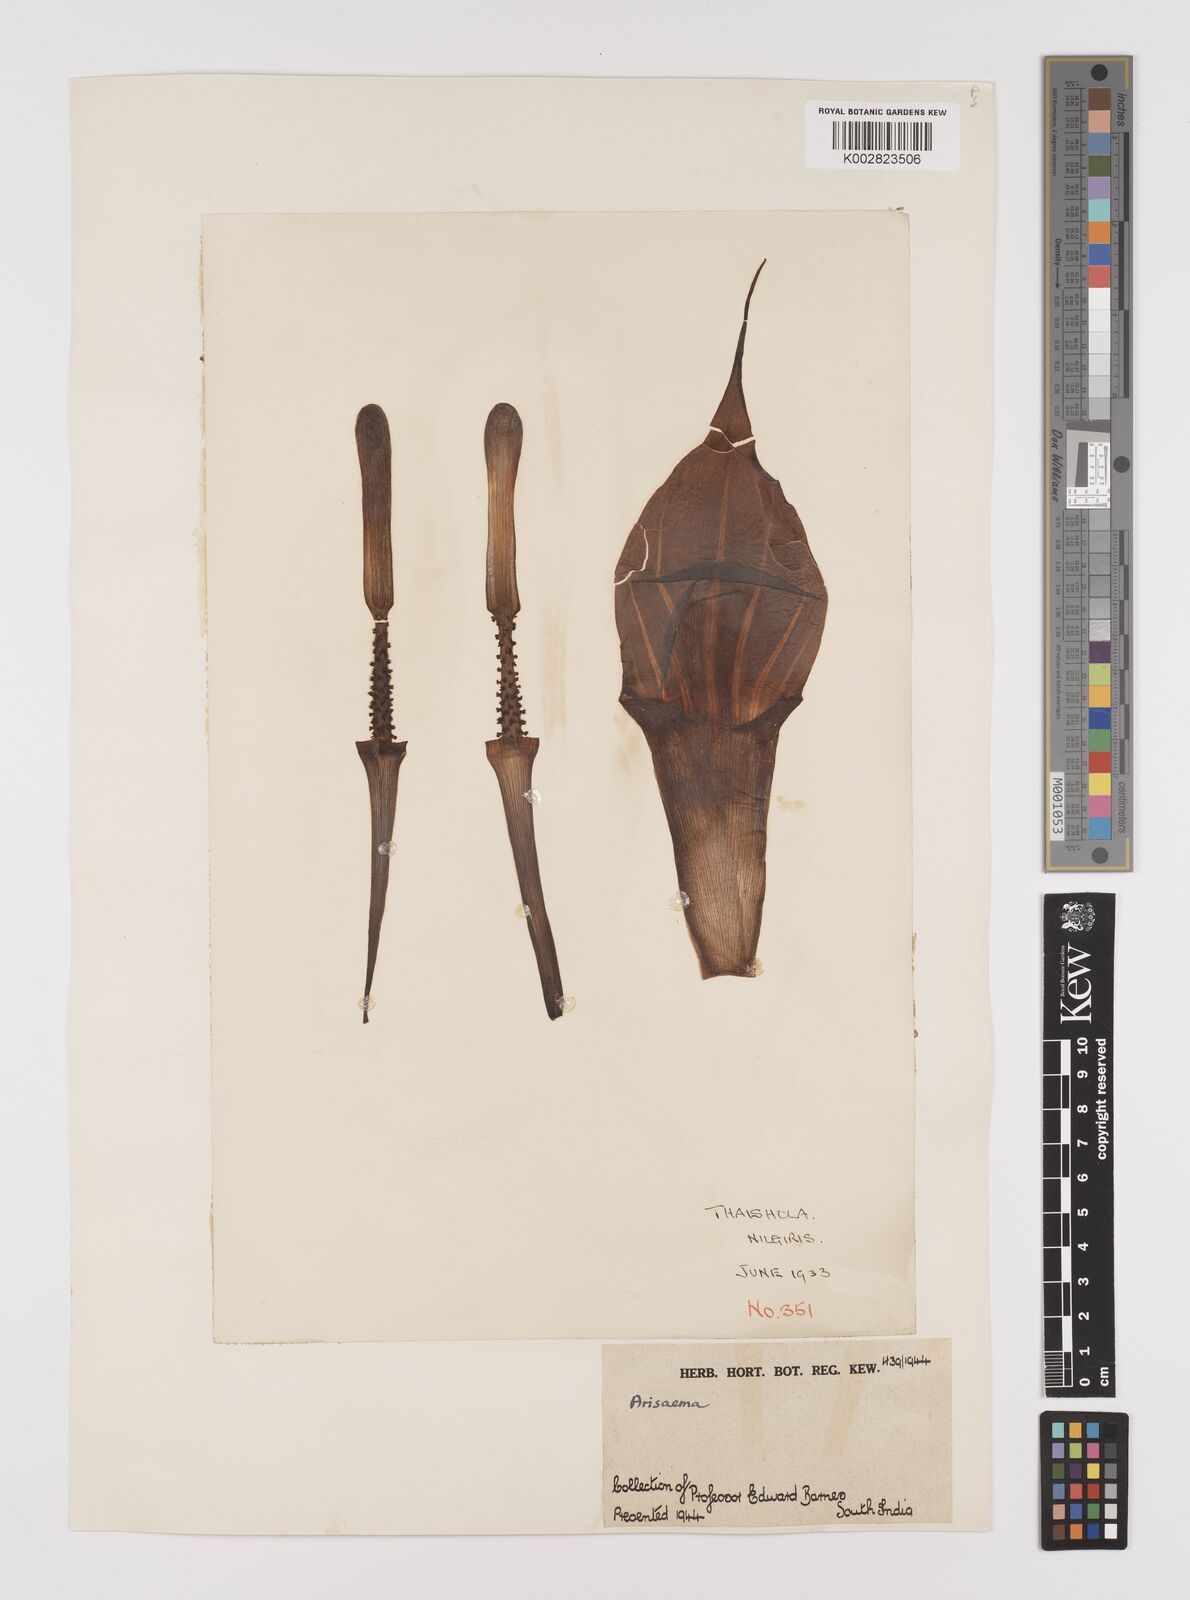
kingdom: Plantae
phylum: Tracheophyta
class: Liliopsida
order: Alismatales
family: Araceae
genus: Arisaema
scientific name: Arisaema
